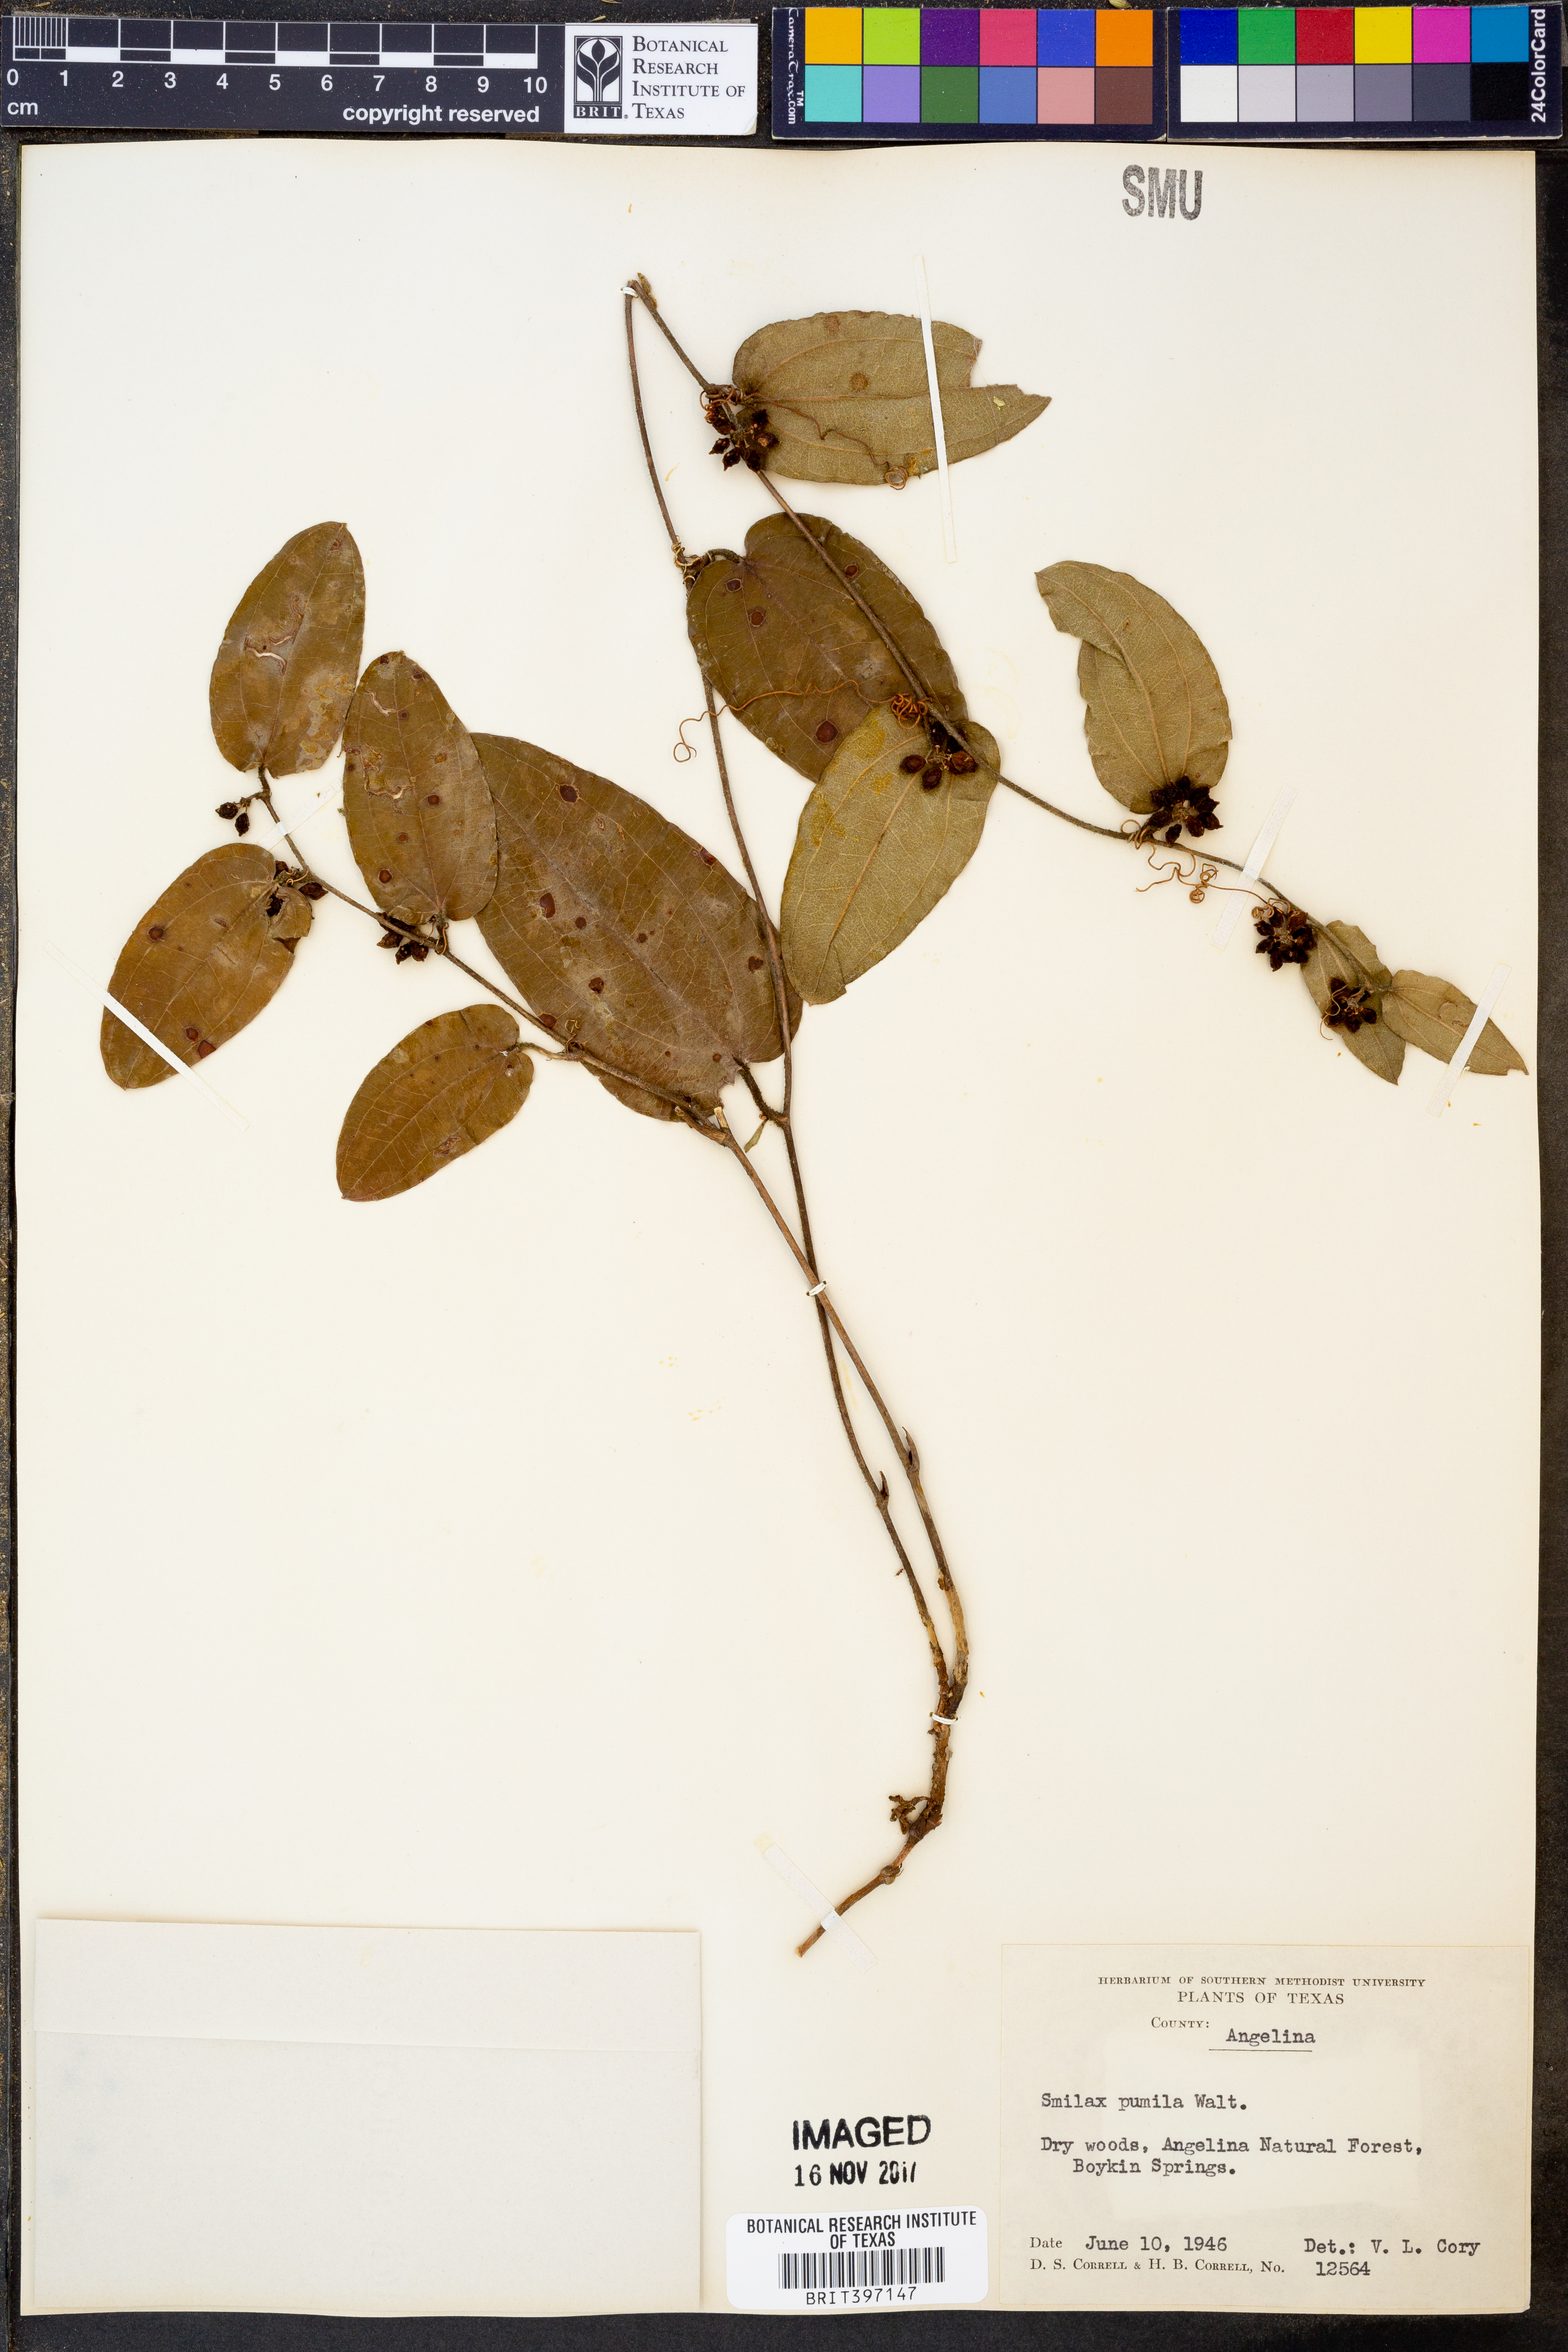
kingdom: Plantae
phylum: Tracheophyta
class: Liliopsida
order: Liliales
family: Smilacaceae
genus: Smilax
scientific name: Smilax pumila
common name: Sarsaparilla-vine
